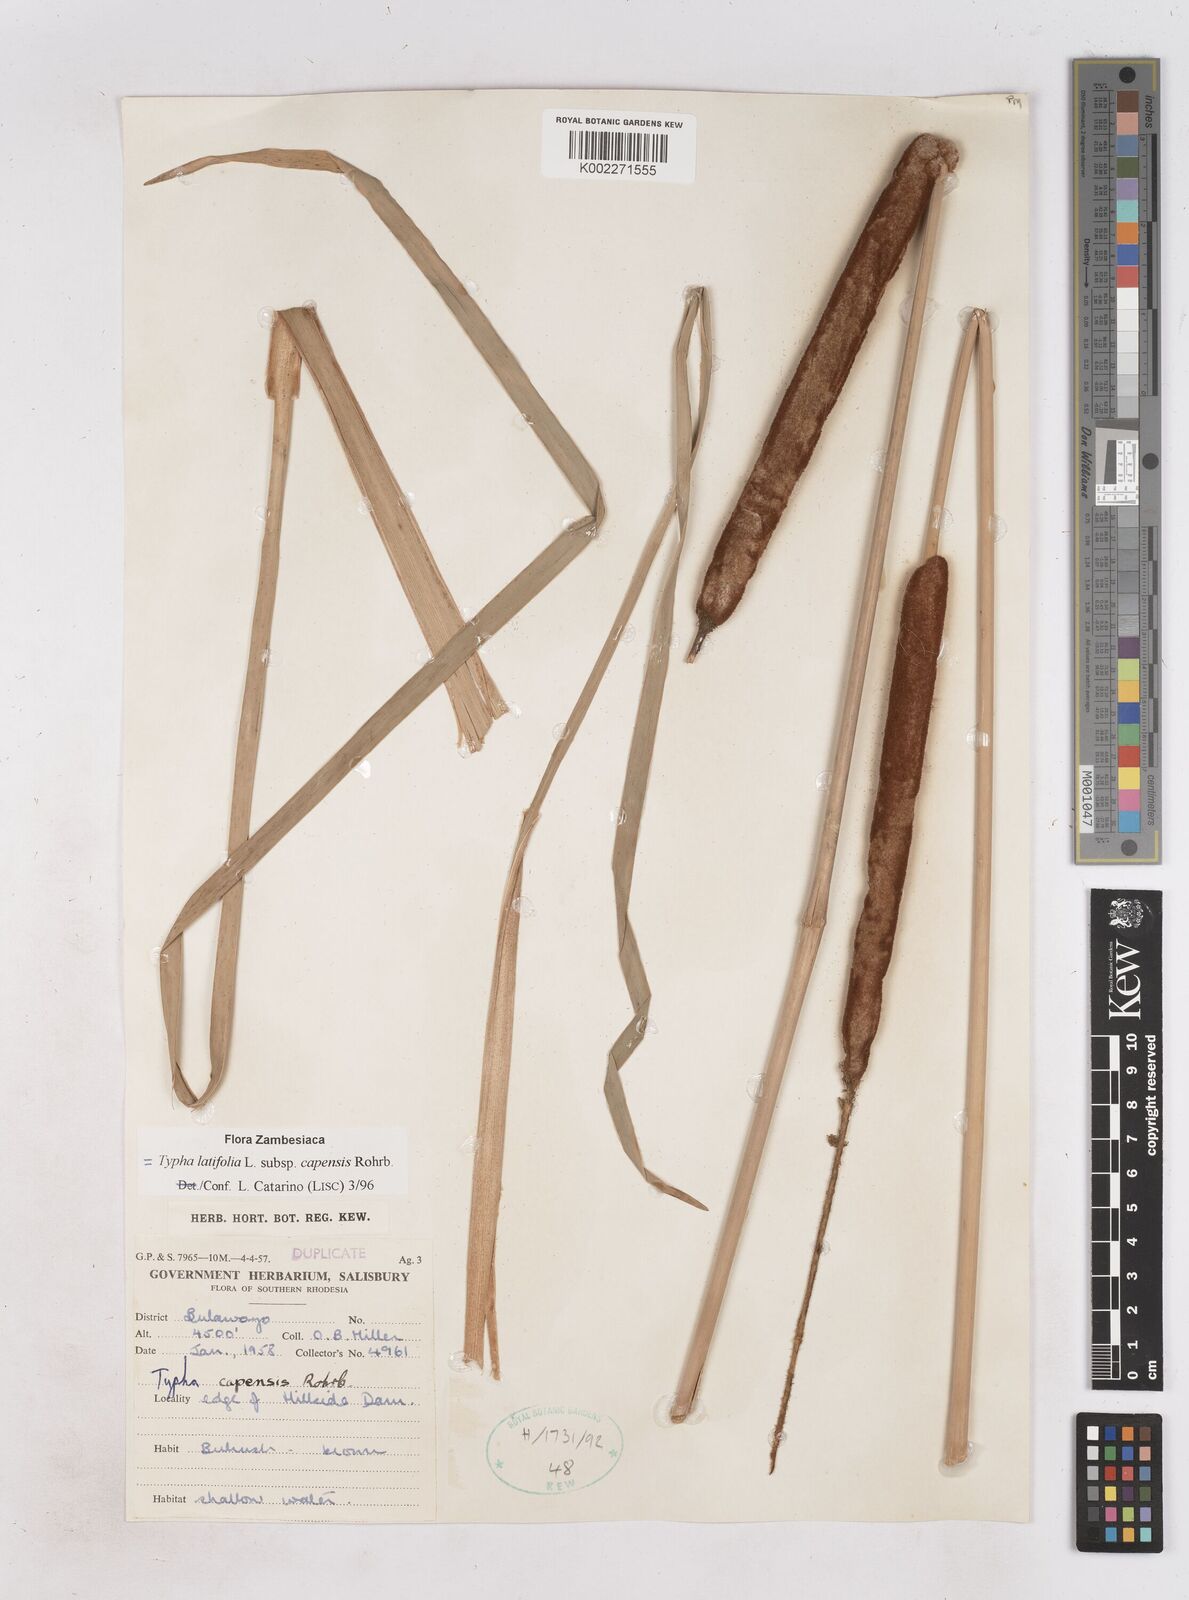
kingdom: Plantae
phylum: Tracheophyta
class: Liliopsida
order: Poales
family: Typhaceae
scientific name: Typhaceae
